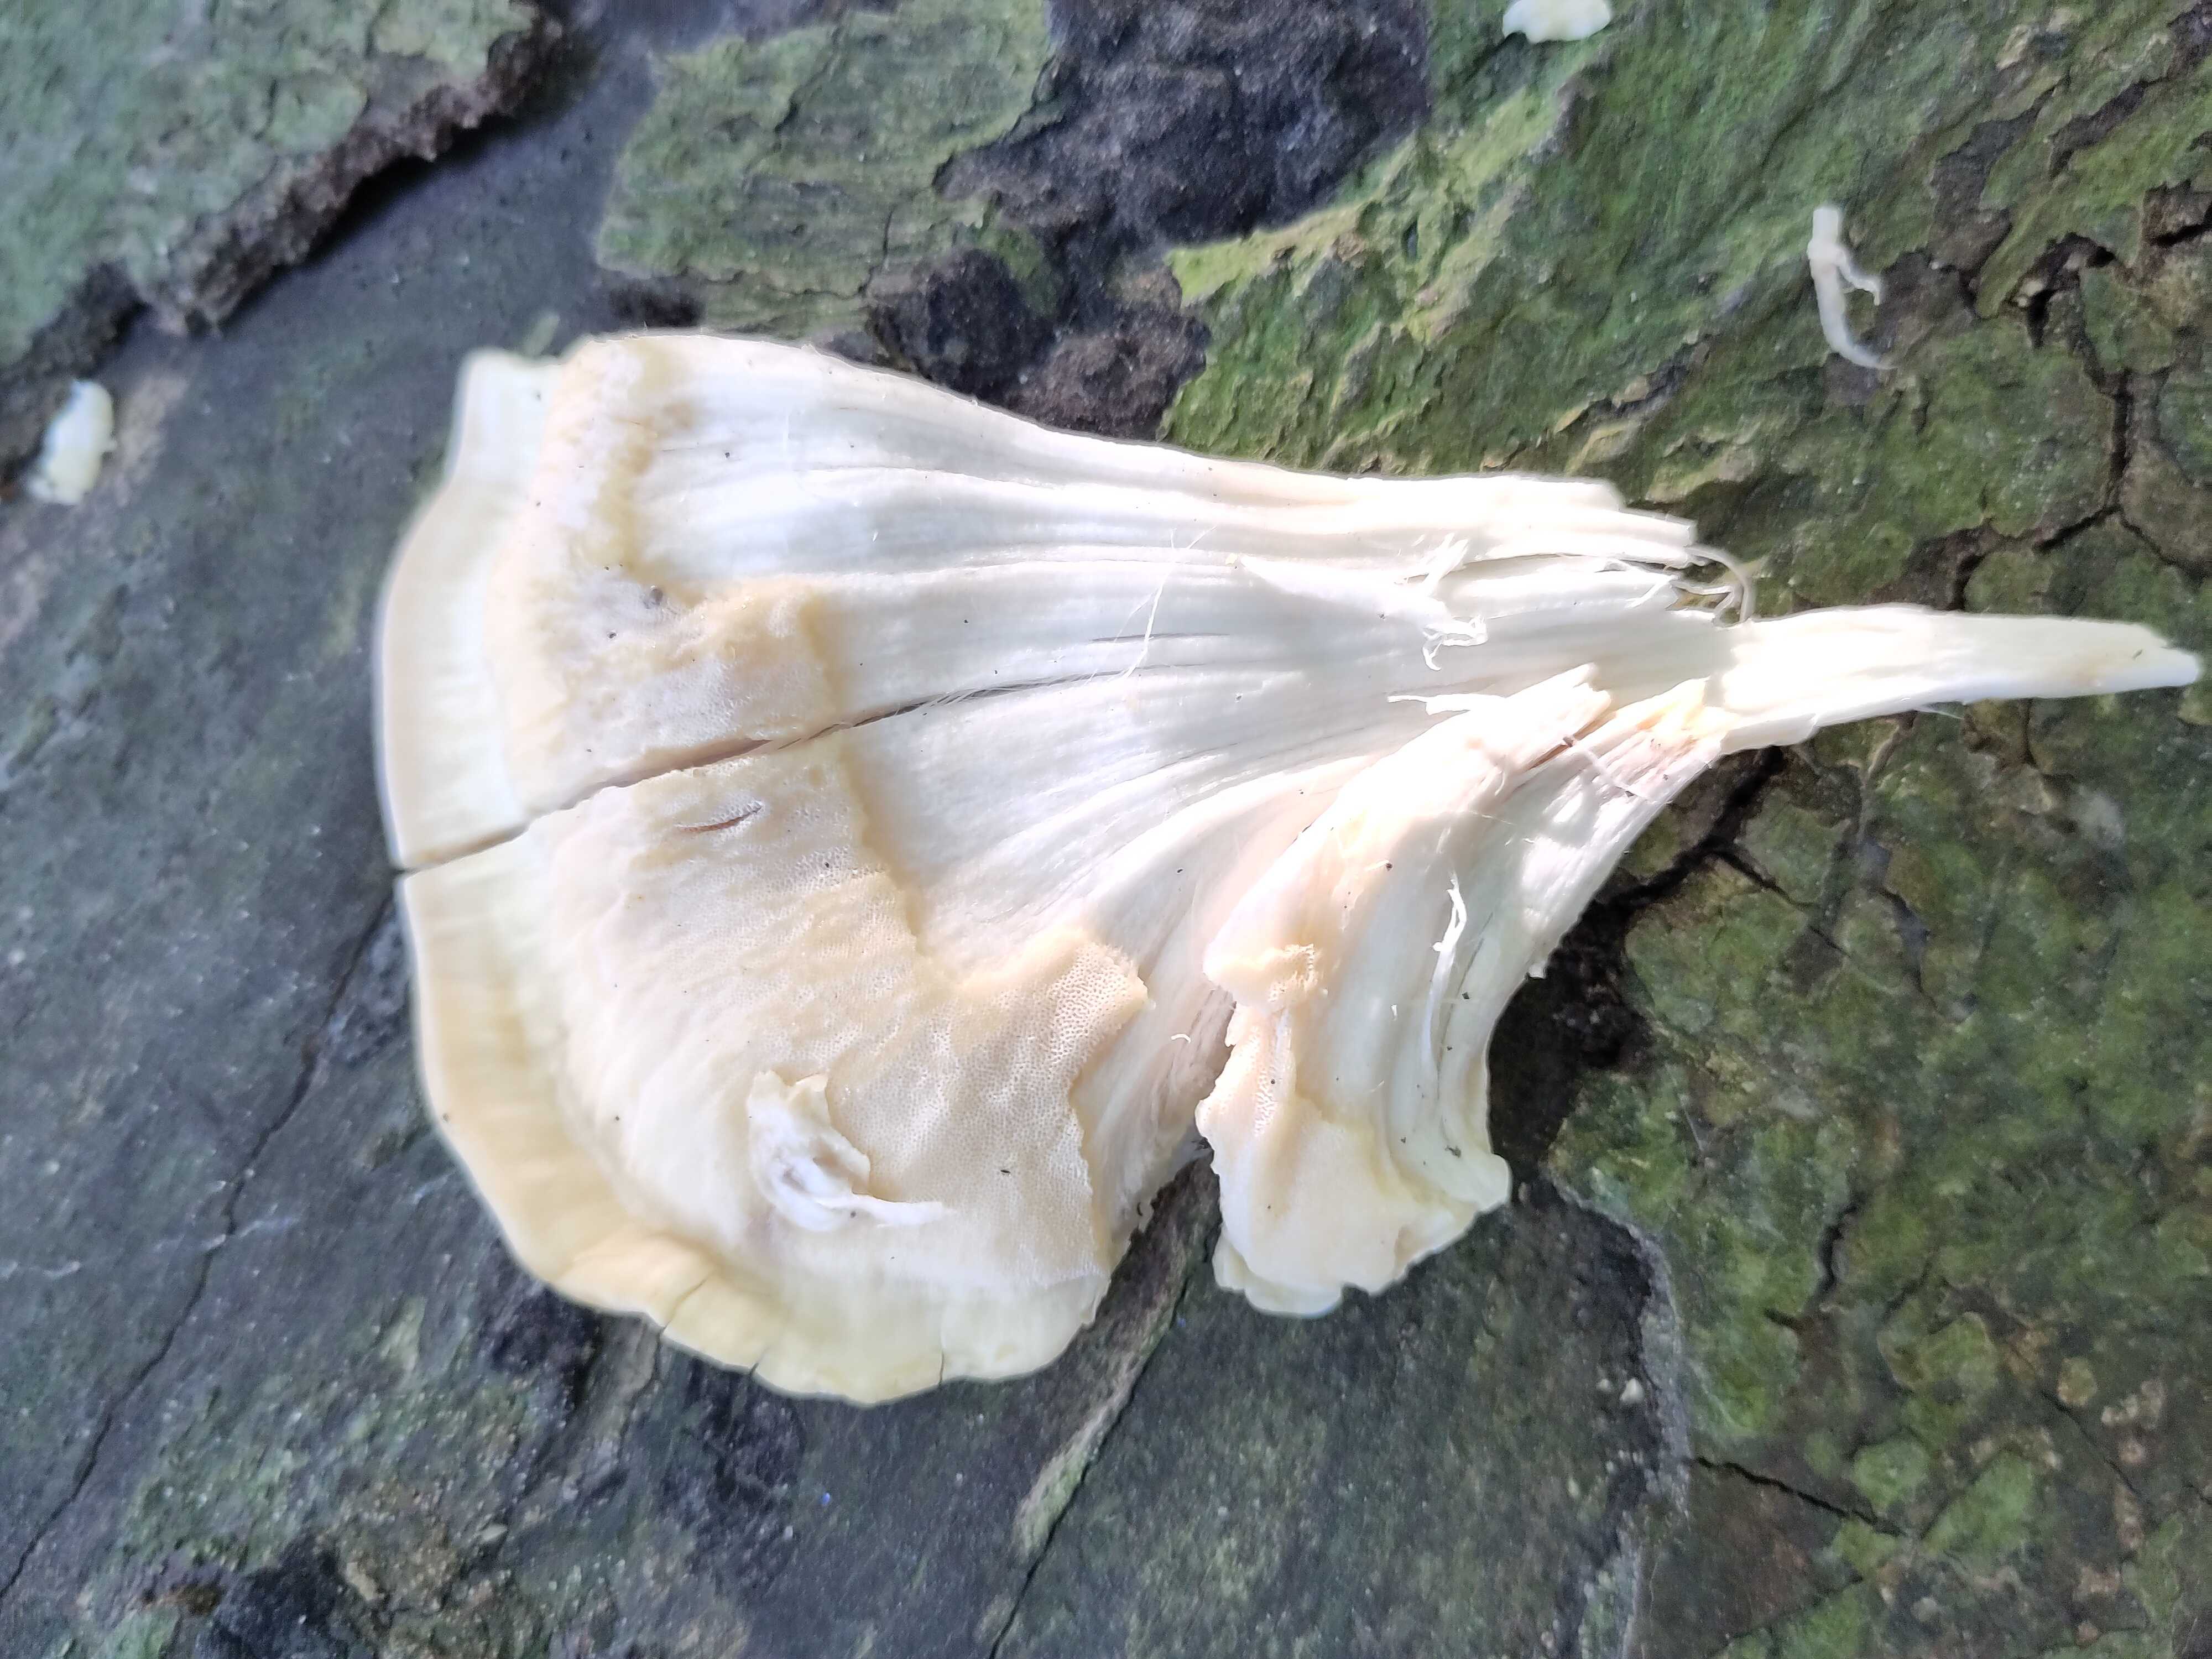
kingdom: Fungi
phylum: Basidiomycota
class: Agaricomycetes
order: Polyporales
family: Meripilaceae
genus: Meripilus
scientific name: Meripilus giganteus
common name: kæmpeporesvamp
